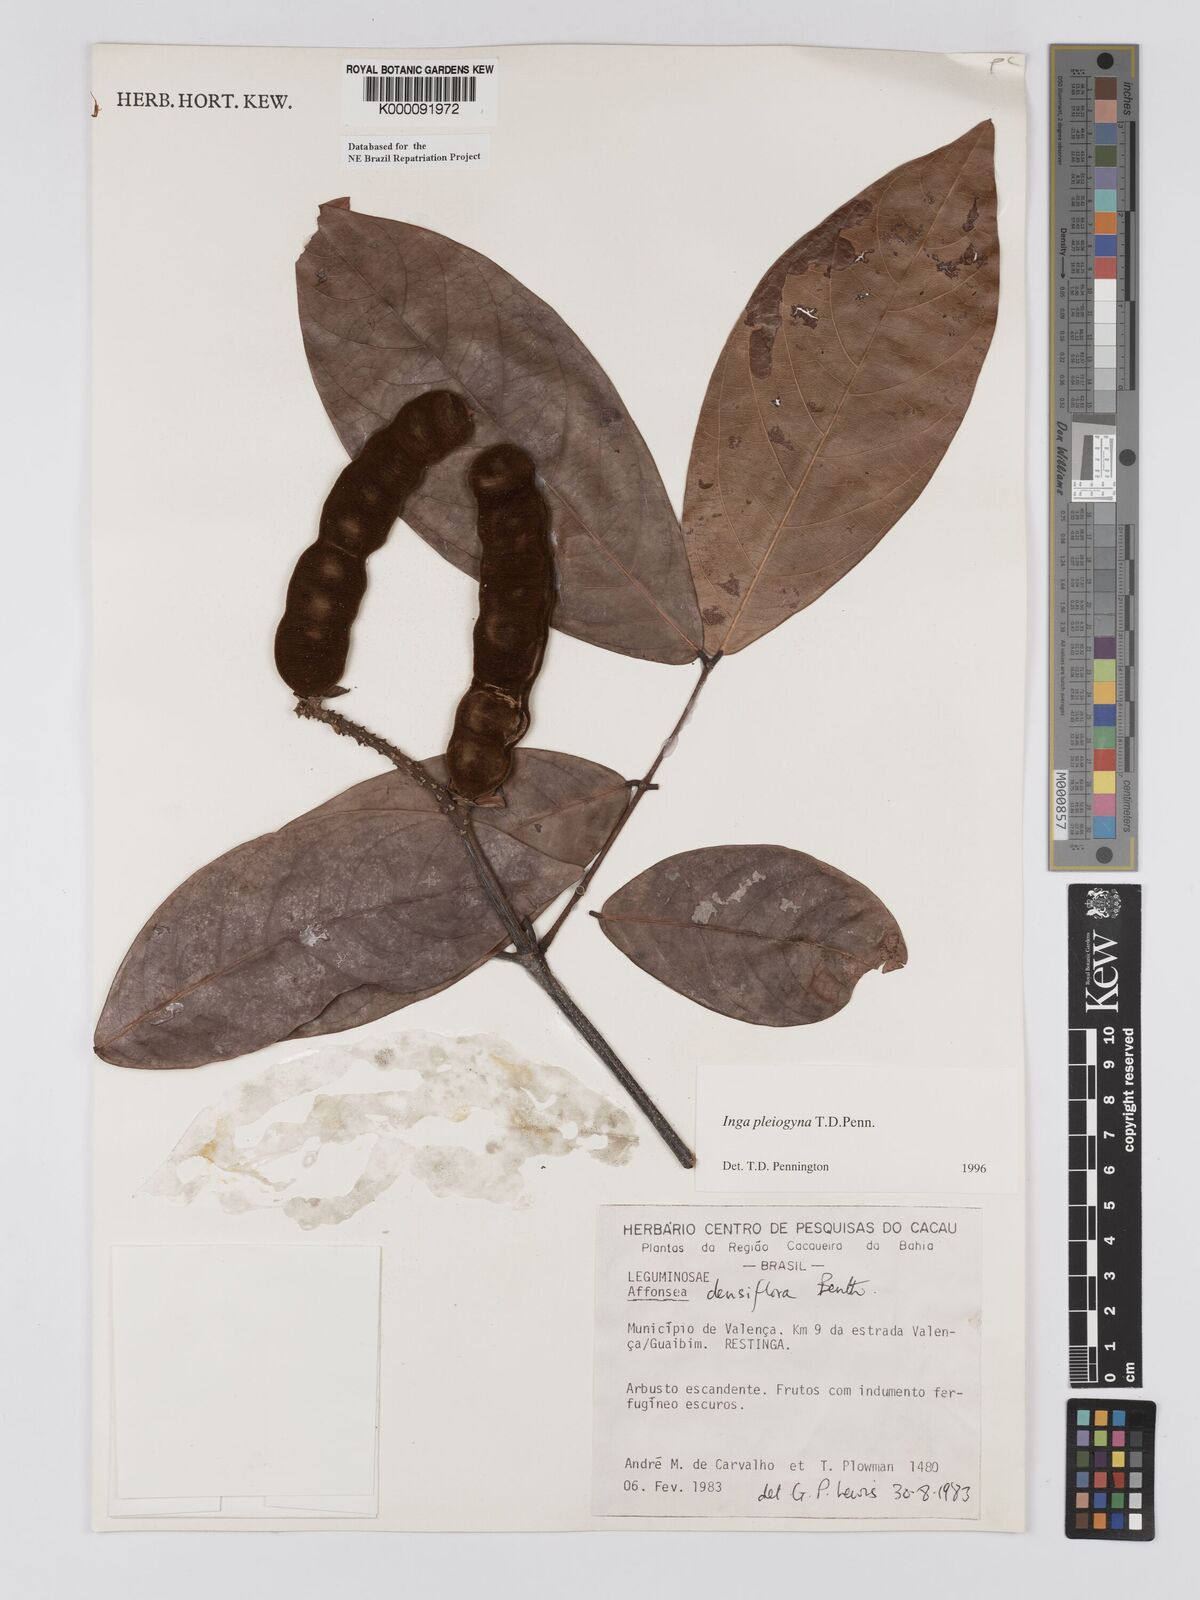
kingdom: Plantae
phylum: Tracheophyta
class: Magnoliopsida
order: Fabales
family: Fabaceae
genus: Inga
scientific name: Inga pleiogyna
